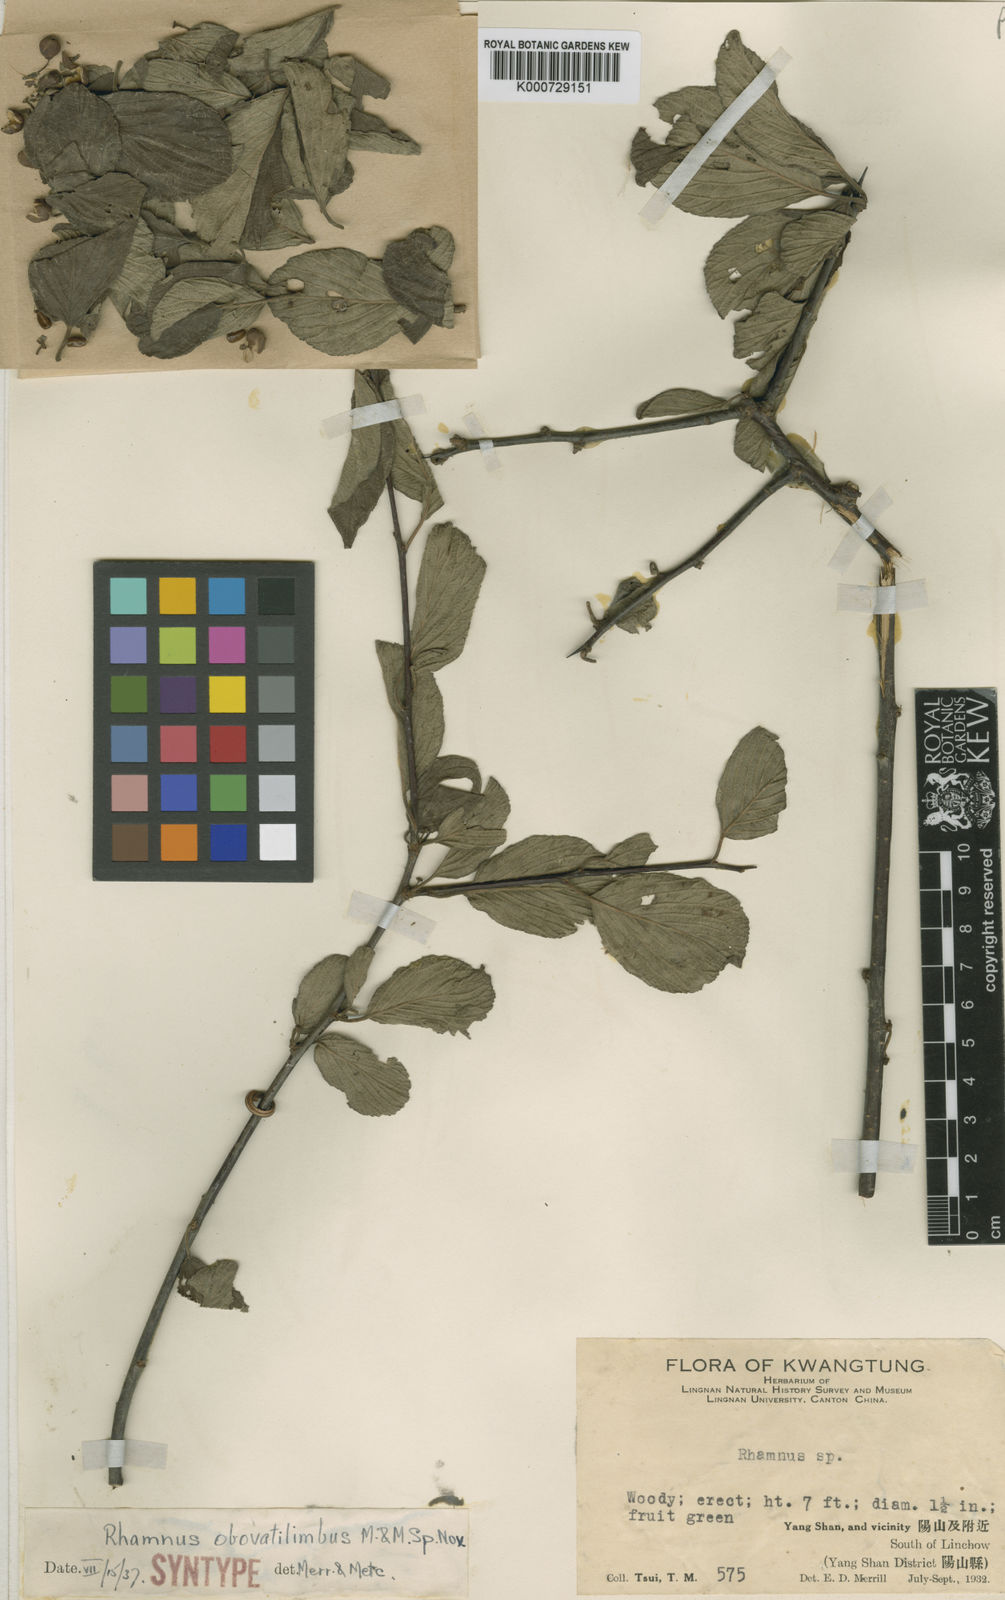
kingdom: Plantae
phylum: Tracheophyta
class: Magnoliopsida
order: Rosales
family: Rhamnaceae
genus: Rhamnus
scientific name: Rhamnus
